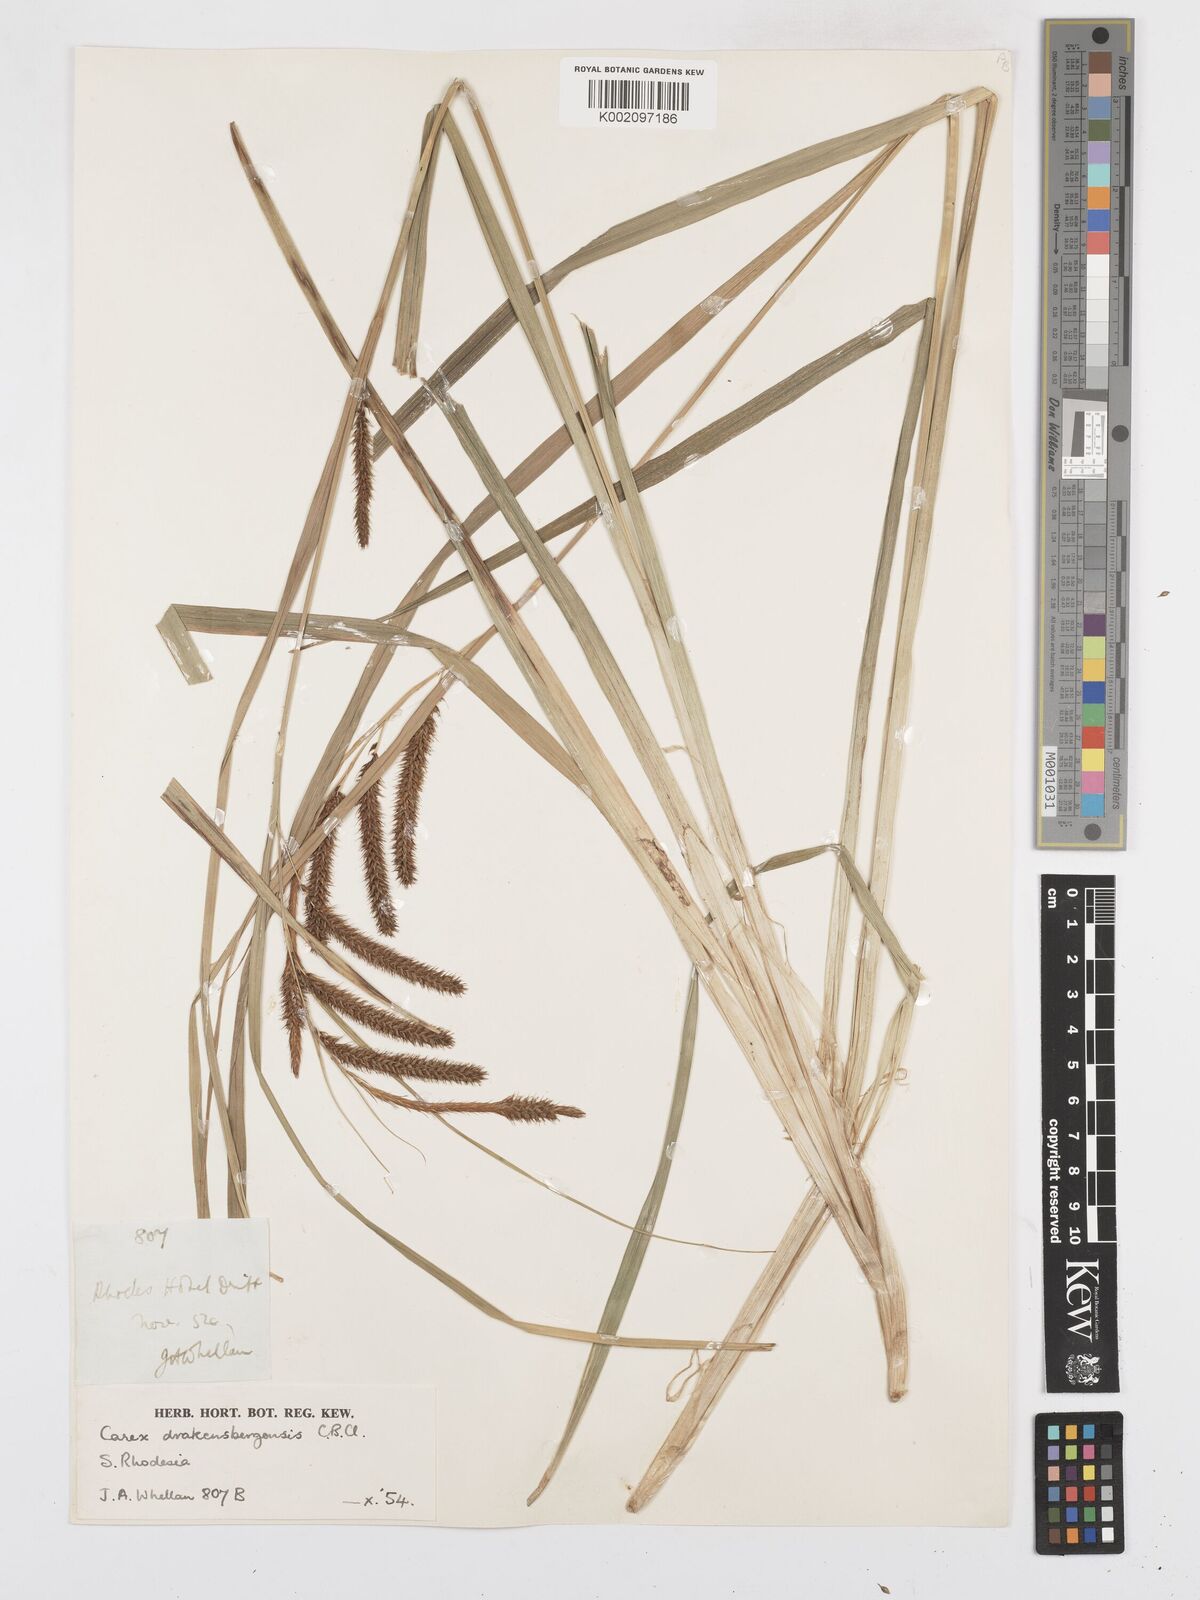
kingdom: Plantae
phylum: Tracheophyta
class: Liliopsida
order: Poales
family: Cyperaceae
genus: Carex
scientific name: Carex cognata
